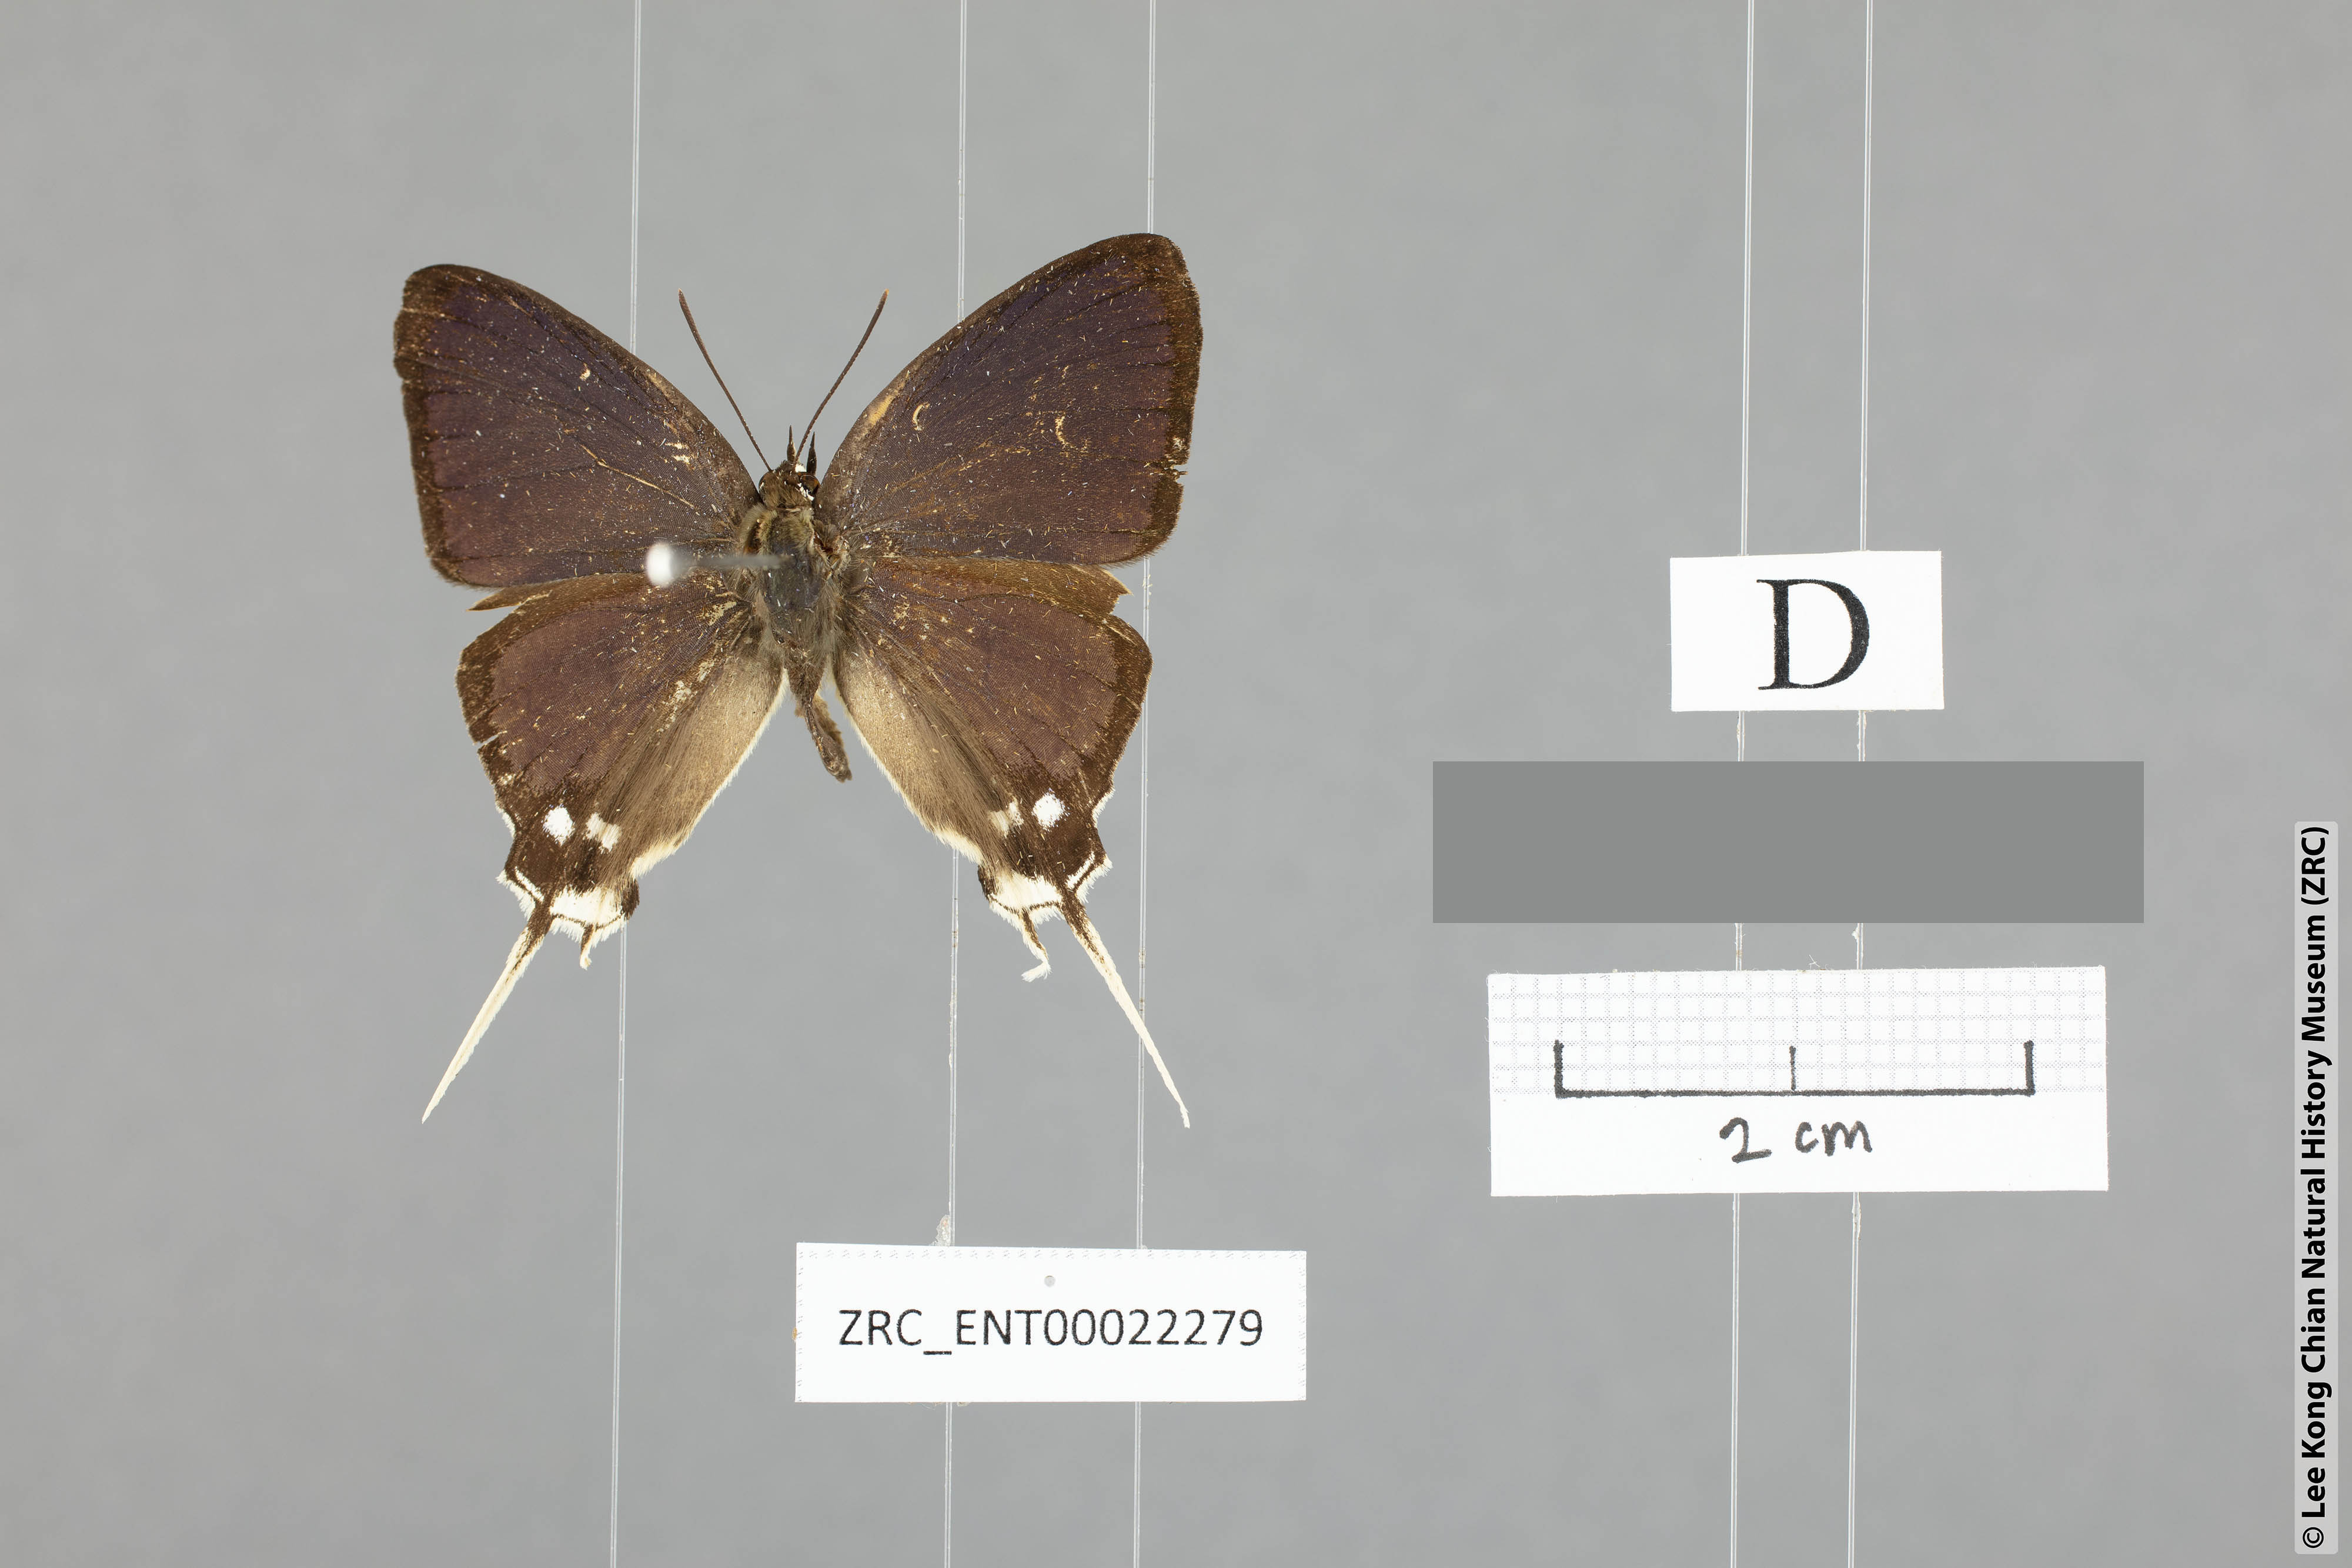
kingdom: Animalia
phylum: Arthropoda
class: Insecta
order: Lepidoptera
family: Lycaenidae
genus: Ticherra
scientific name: Ticherra acte
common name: Blue imperial
